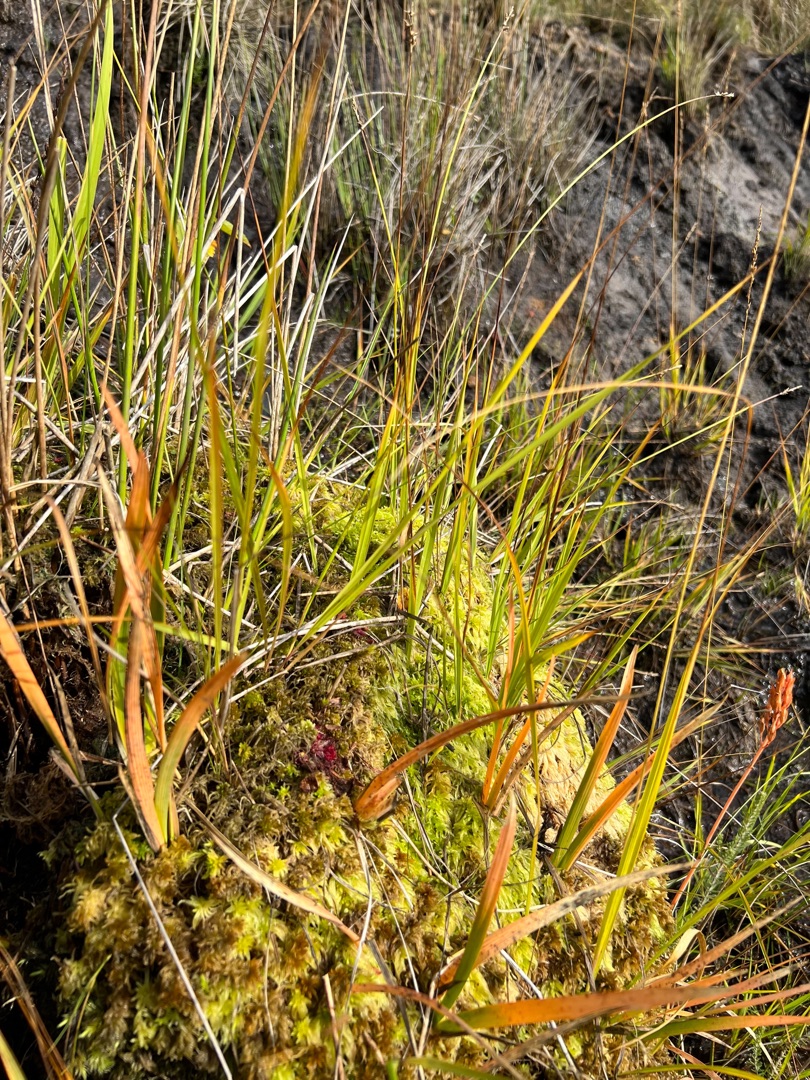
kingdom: Plantae
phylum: Tracheophyta
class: Magnoliopsida
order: Caryophyllales
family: Droseraceae
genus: Drosera
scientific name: Drosera rotundifolia
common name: Rundbladet soldug
